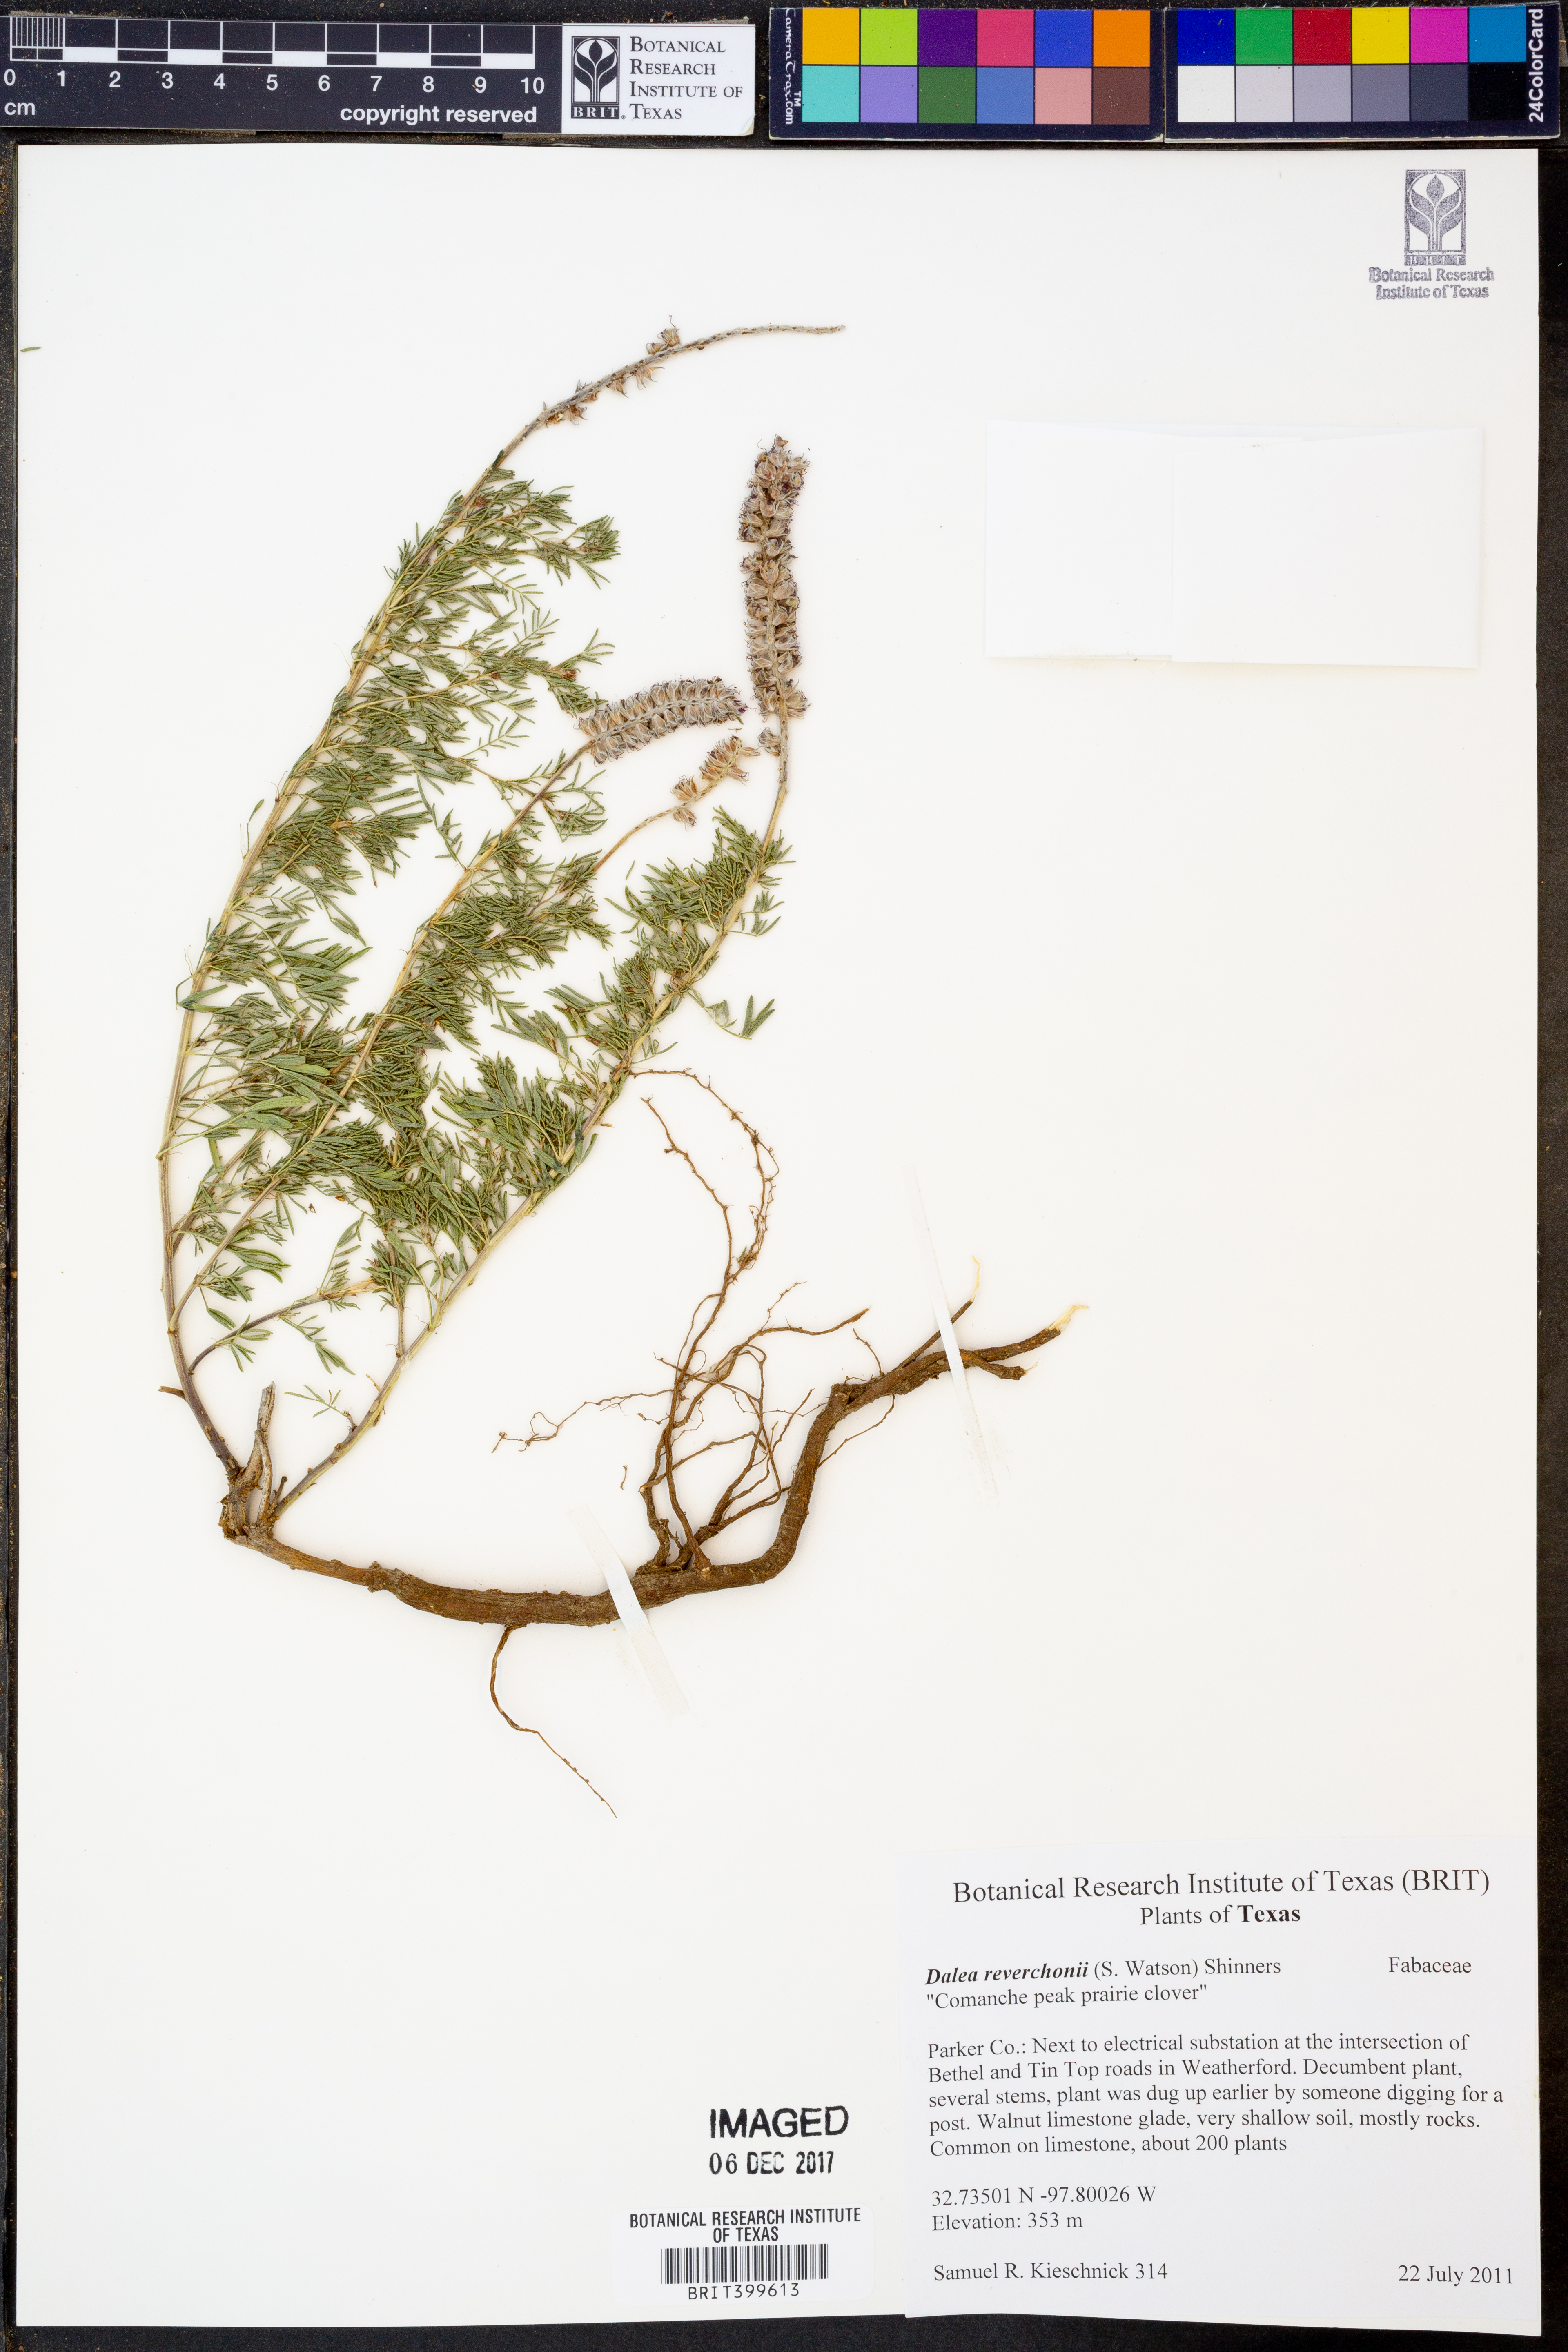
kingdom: Plantae
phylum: Tracheophyta
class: Magnoliopsida
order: Fabales
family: Fabaceae
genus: Dalea
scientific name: Dalea reverchonii
